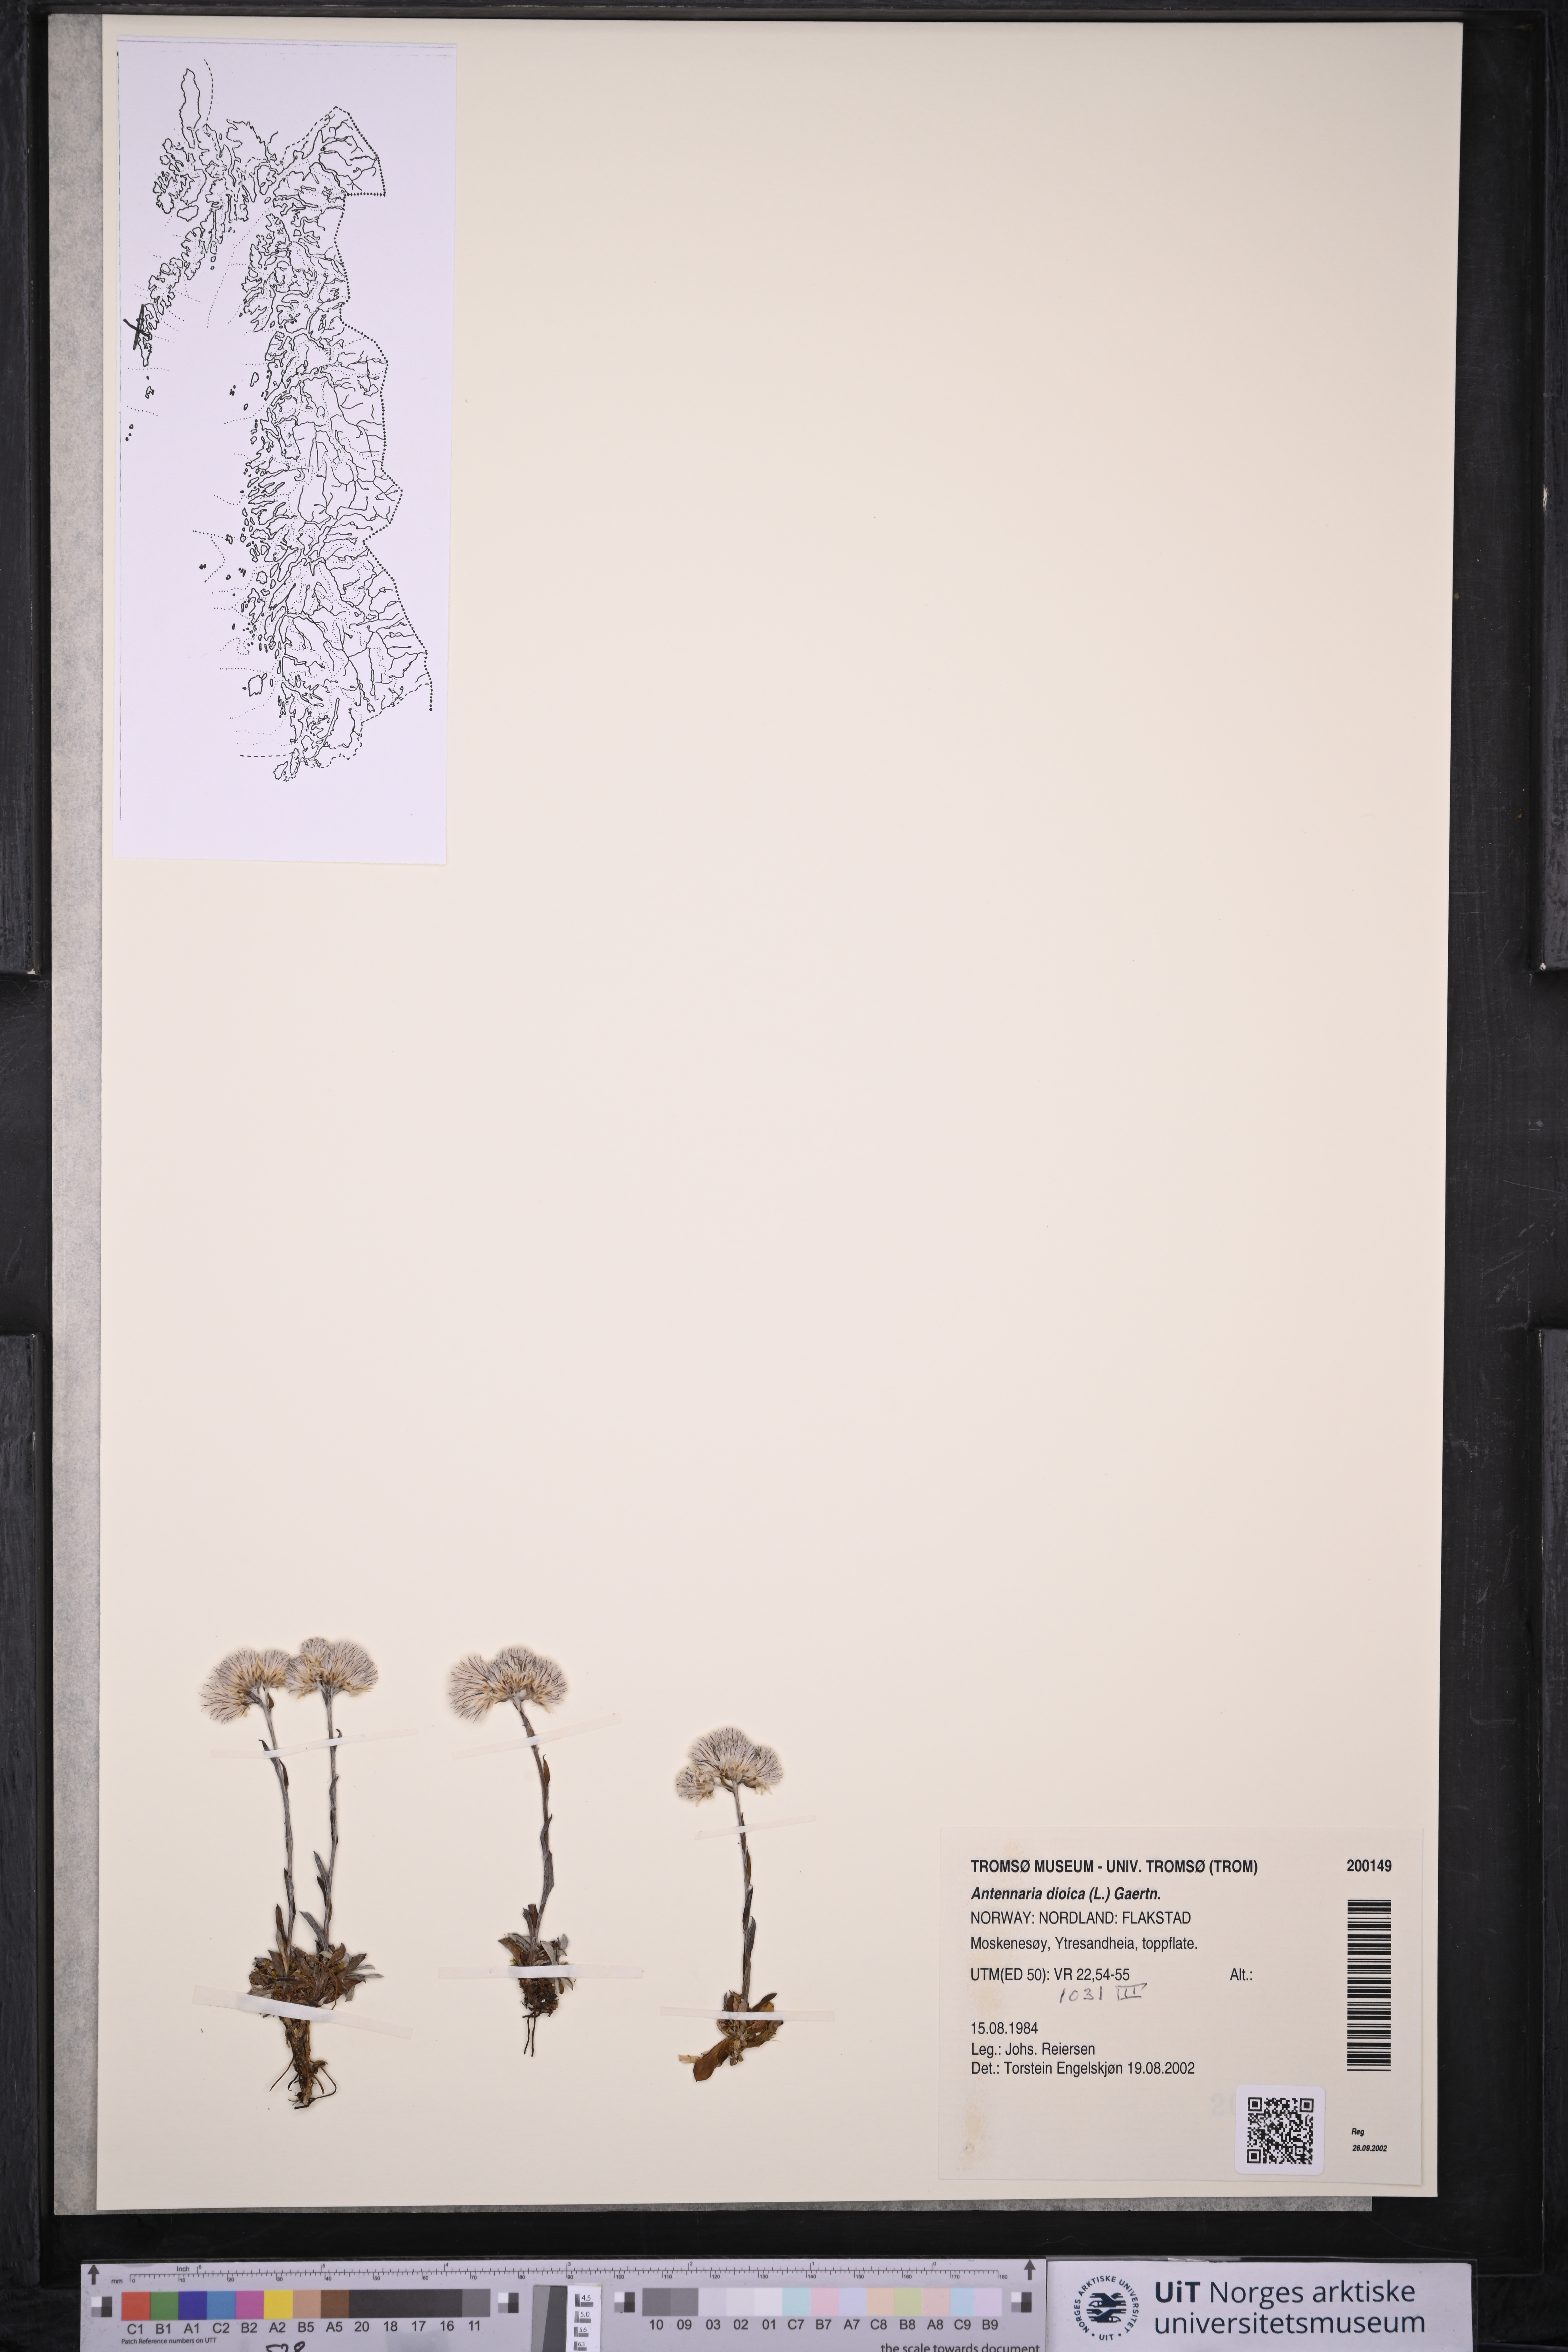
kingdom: Plantae
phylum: Tracheophyta
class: Magnoliopsida
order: Asterales
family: Asteraceae
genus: Antennaria
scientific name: Antennaria dioica
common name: Mountain everlasting
